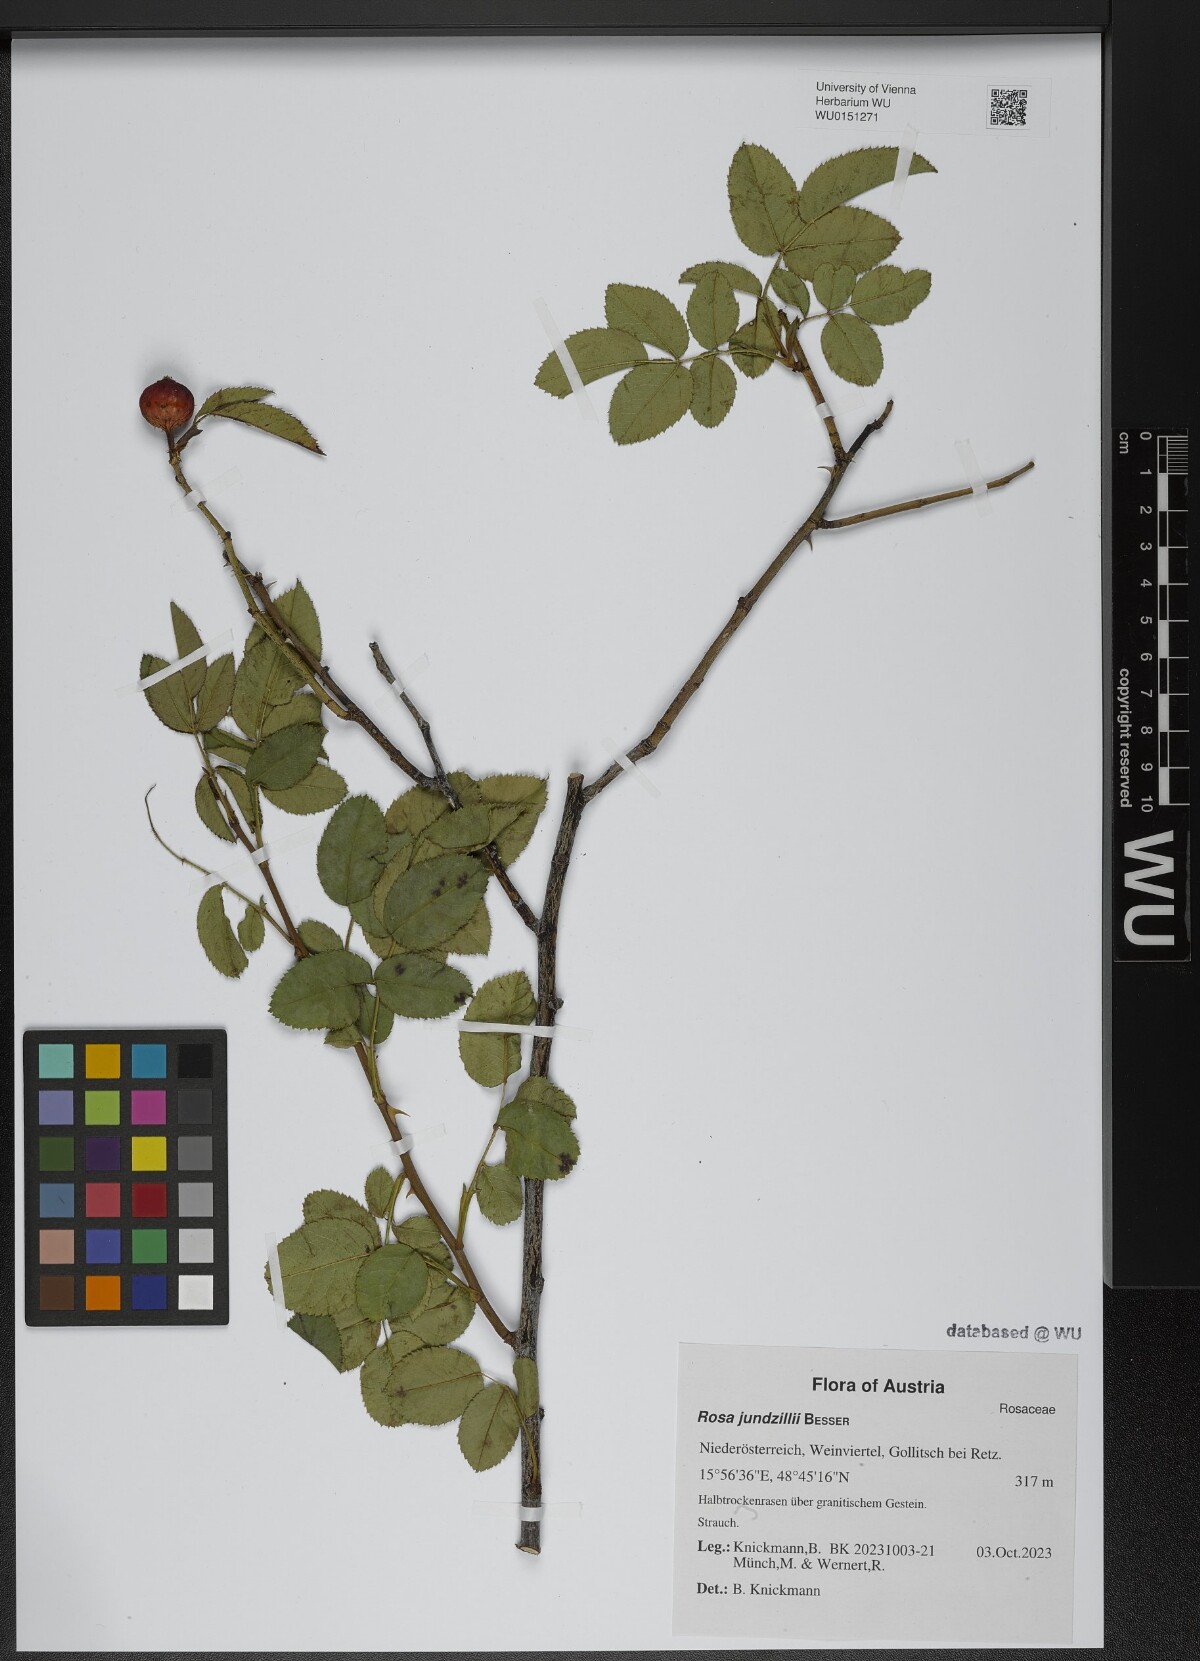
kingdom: Plantae
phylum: Tracheophyta
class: Magnoliopsida
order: Rosales
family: Rosaceae
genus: Rosa
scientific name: Rosa marginata
